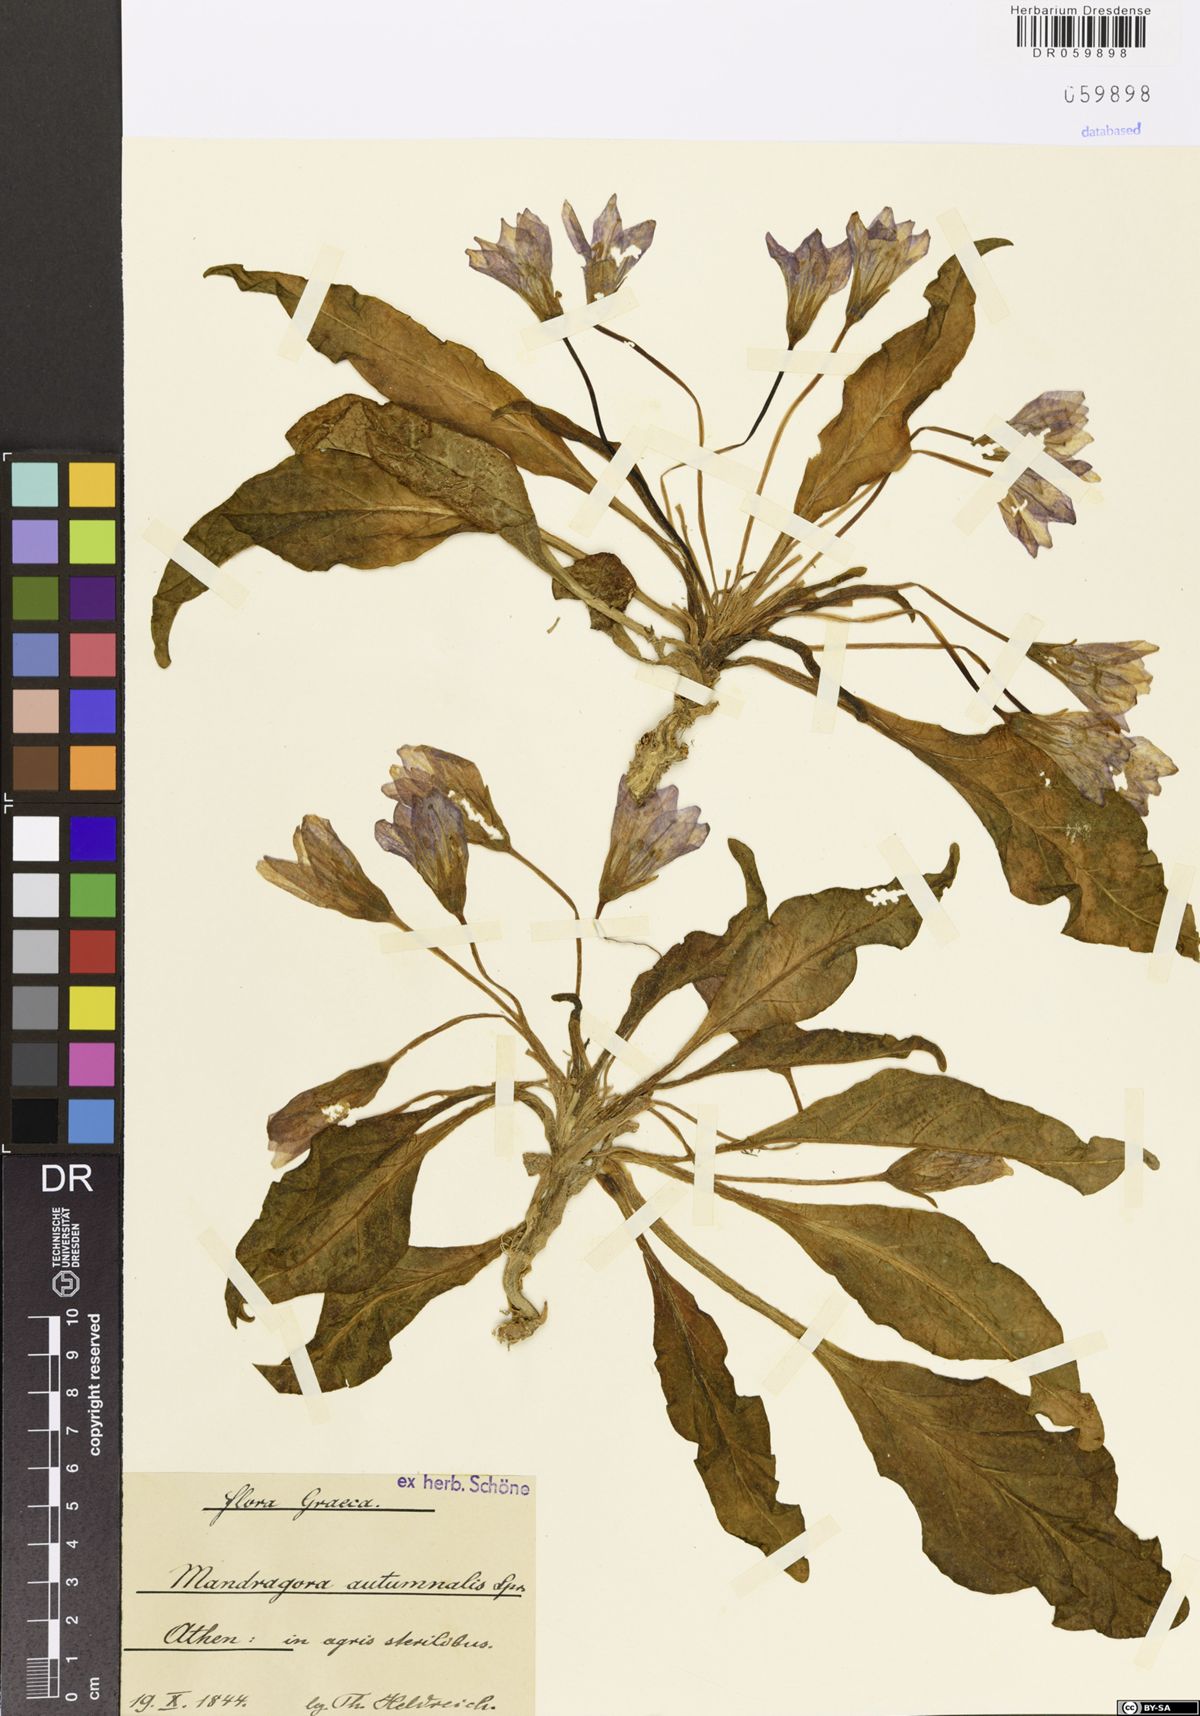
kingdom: Plantae
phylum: Tracheophyta
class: Magnoliopsida
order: Solanales
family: Solanaceae
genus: Mandragora
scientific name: Mandragora officinarum
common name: Mandrake
